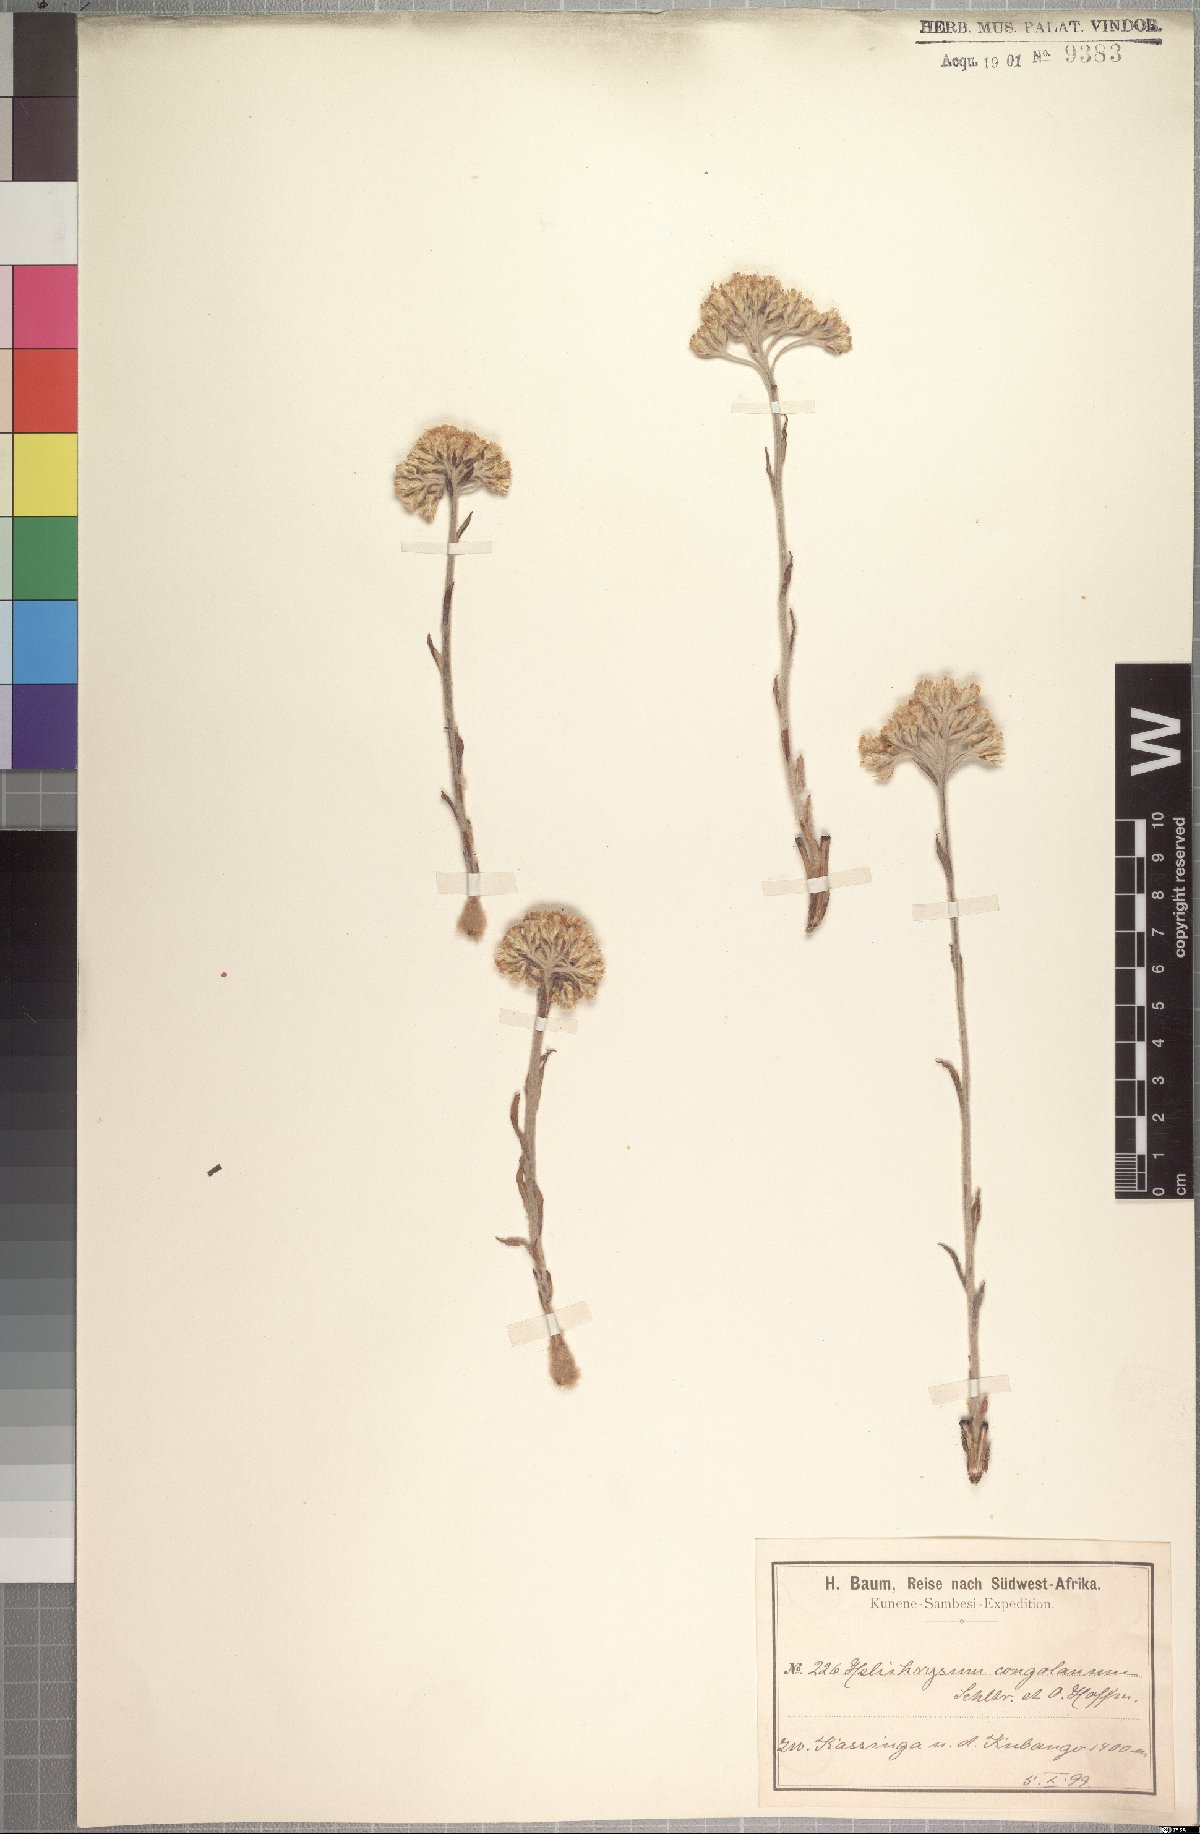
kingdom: Plantae
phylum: Tracheophyta
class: Magnoliopsida
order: Asterales
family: Asteraceae
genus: Helichrysum
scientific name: Helichrysum congolanum
